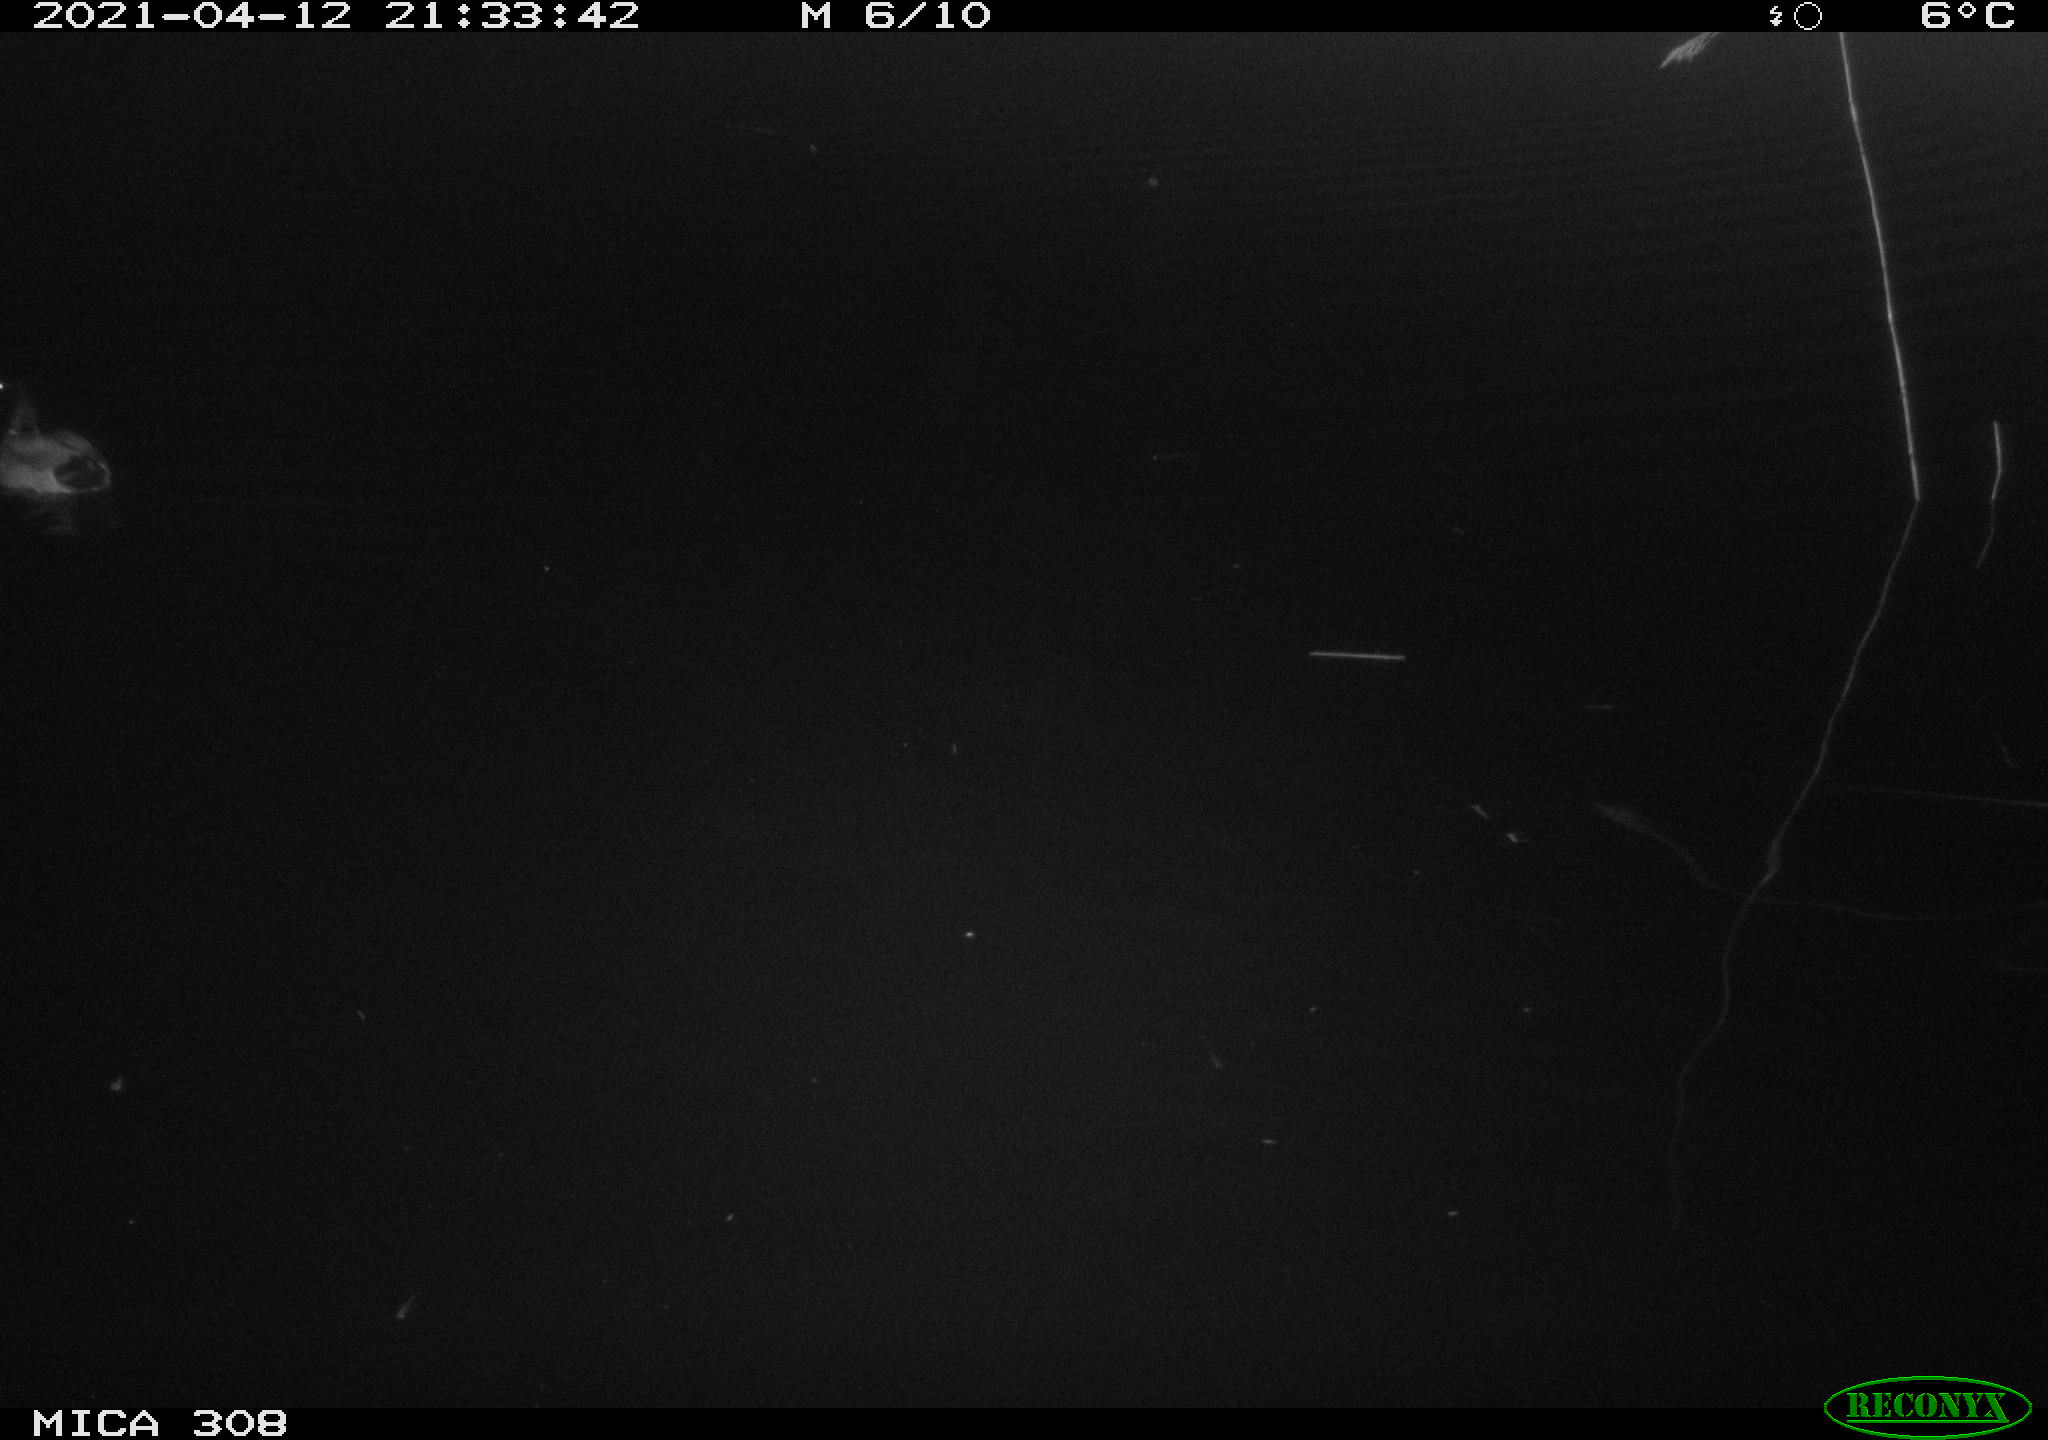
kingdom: Animalia
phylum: Chordata
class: Aves
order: Anseriformes
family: Anatidae
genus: Anas
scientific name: Anas platyrhynchos
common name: Mallard
